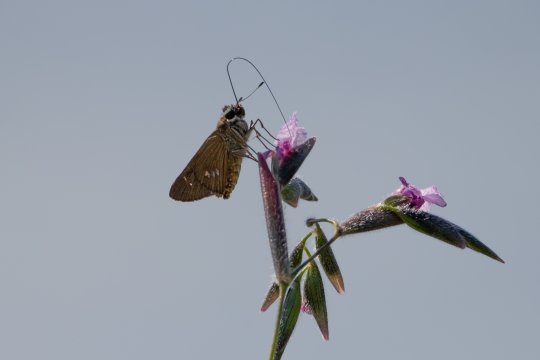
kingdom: Animalia
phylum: Arthropoda
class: Insecta
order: Lepidoptera
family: Hesperiidae
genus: Calpodes
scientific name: Calpodes ethlius
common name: Brazilian Skipper
